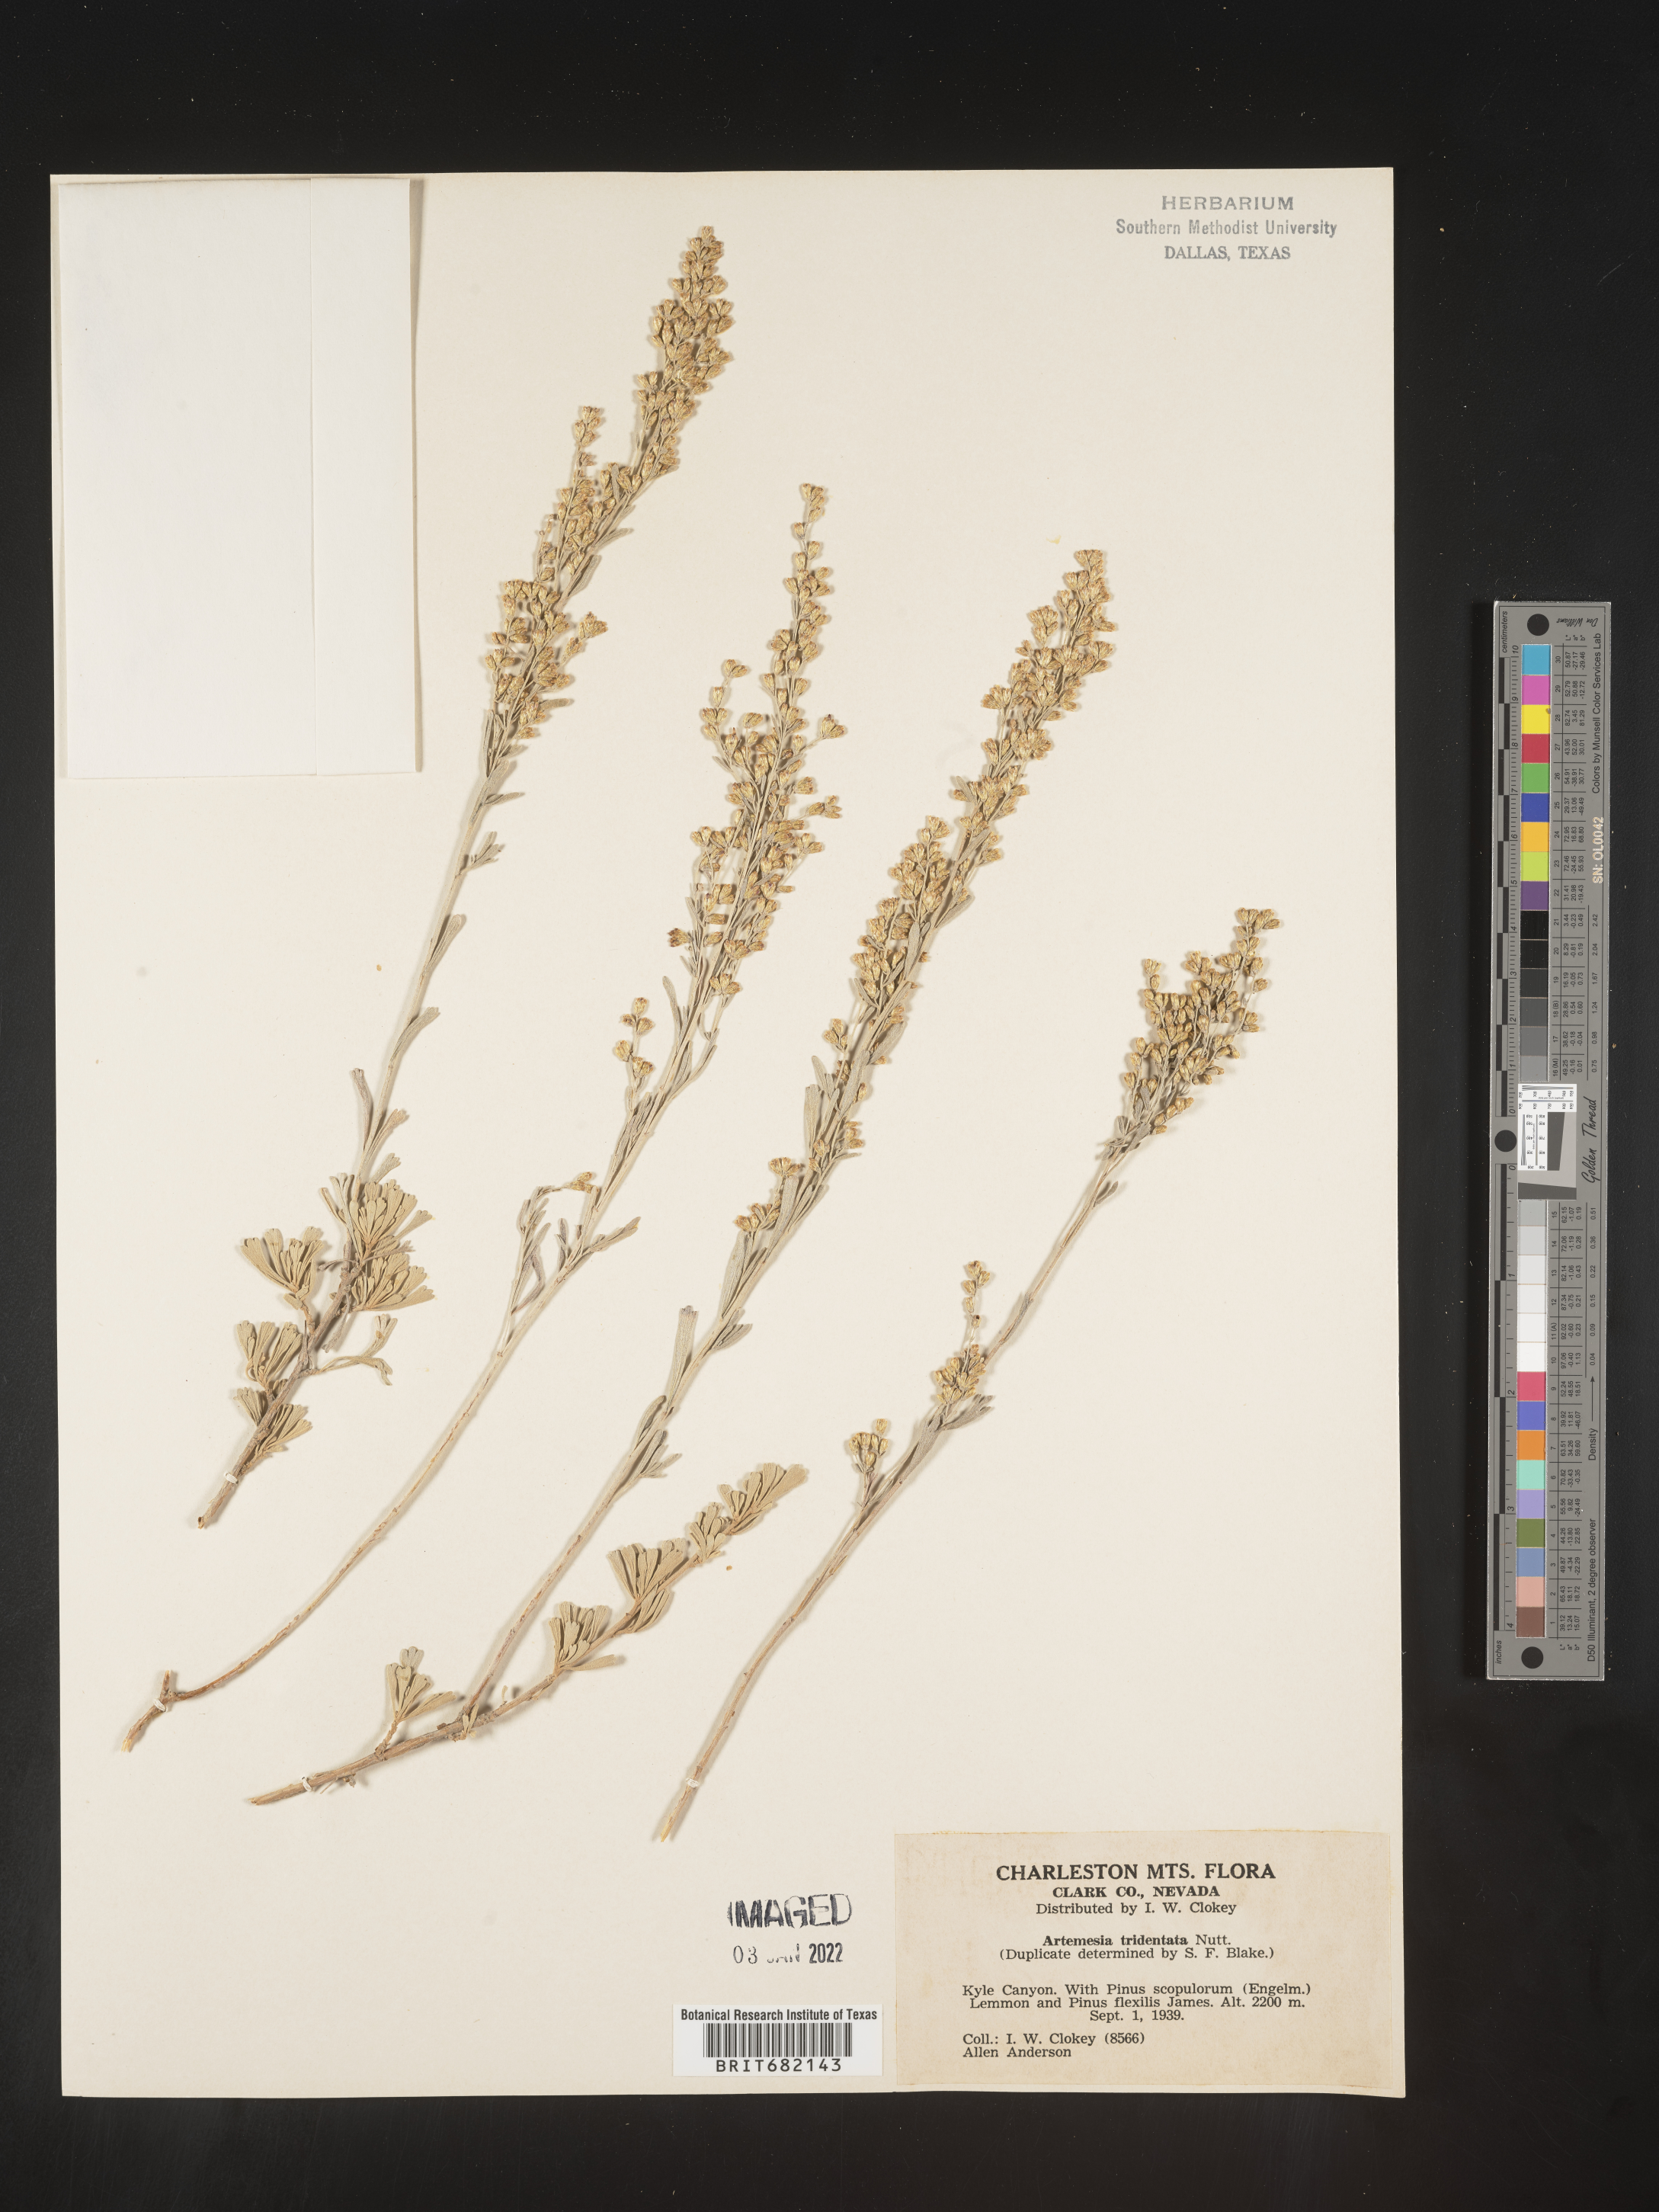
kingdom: Plantae
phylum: Tracheophyta
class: Magnoliopsida
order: Asterales
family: Asteraceae
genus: Artemisia
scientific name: Artemisia tridentata
